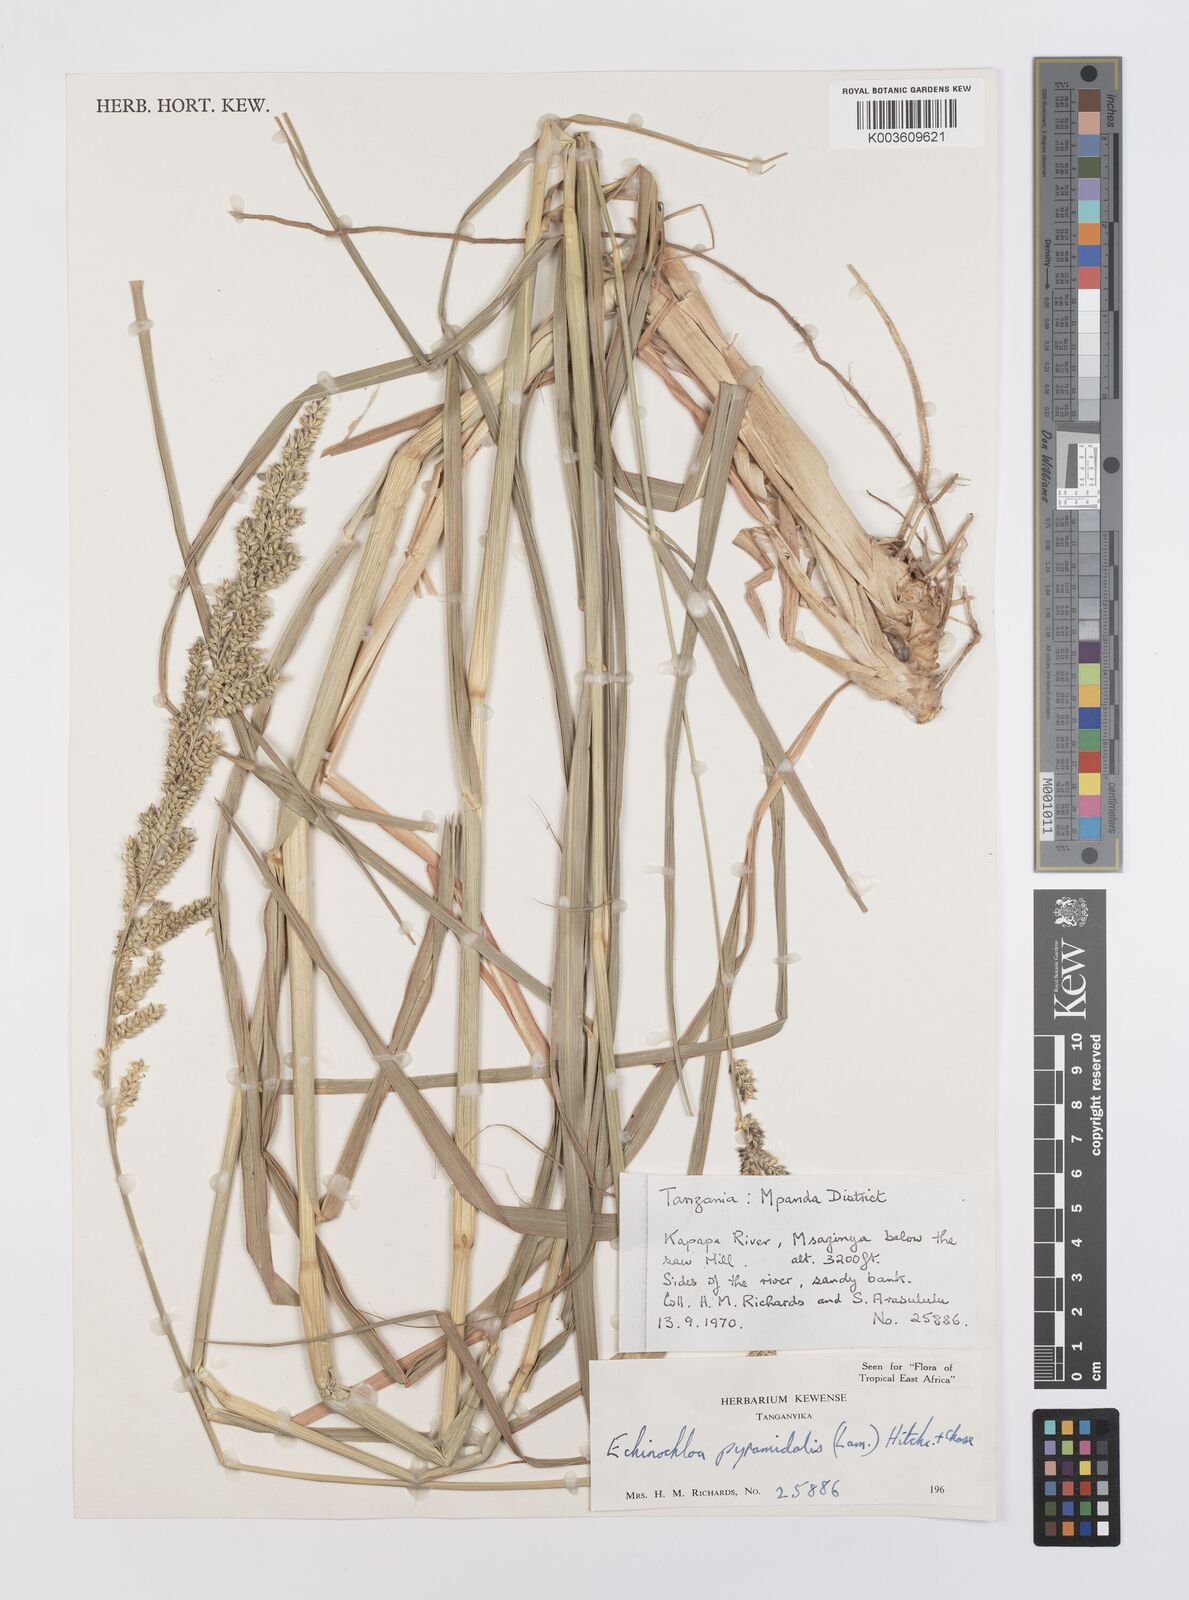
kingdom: Plantae
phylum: Tracheophyta
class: Liliopsida
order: Poales
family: Poaceae
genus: Echinochloa
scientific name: Echinochloa pyramidalis
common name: Antelope grass
